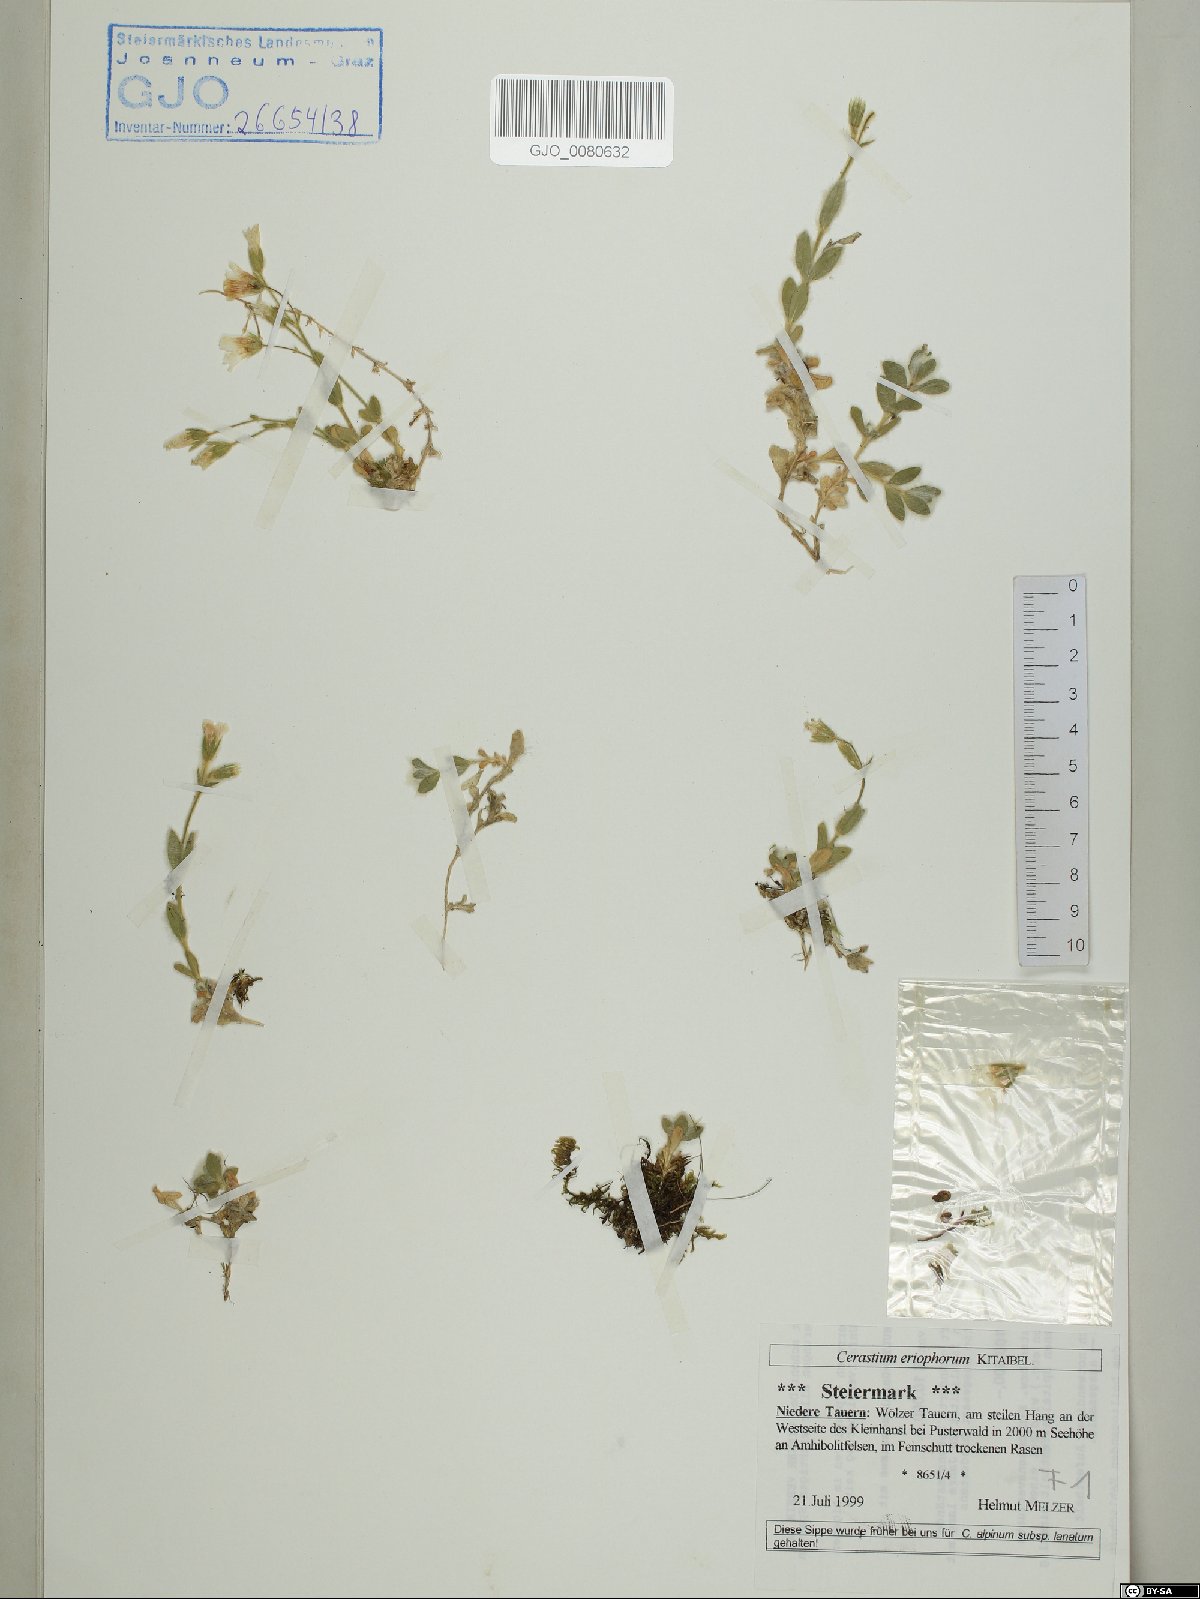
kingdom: Plantae
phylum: Tracheophyta
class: Magnoliopsida
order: Caryophyllales
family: Caryophyllaceae
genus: Cerastium
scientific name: Cerastium eriophorum
